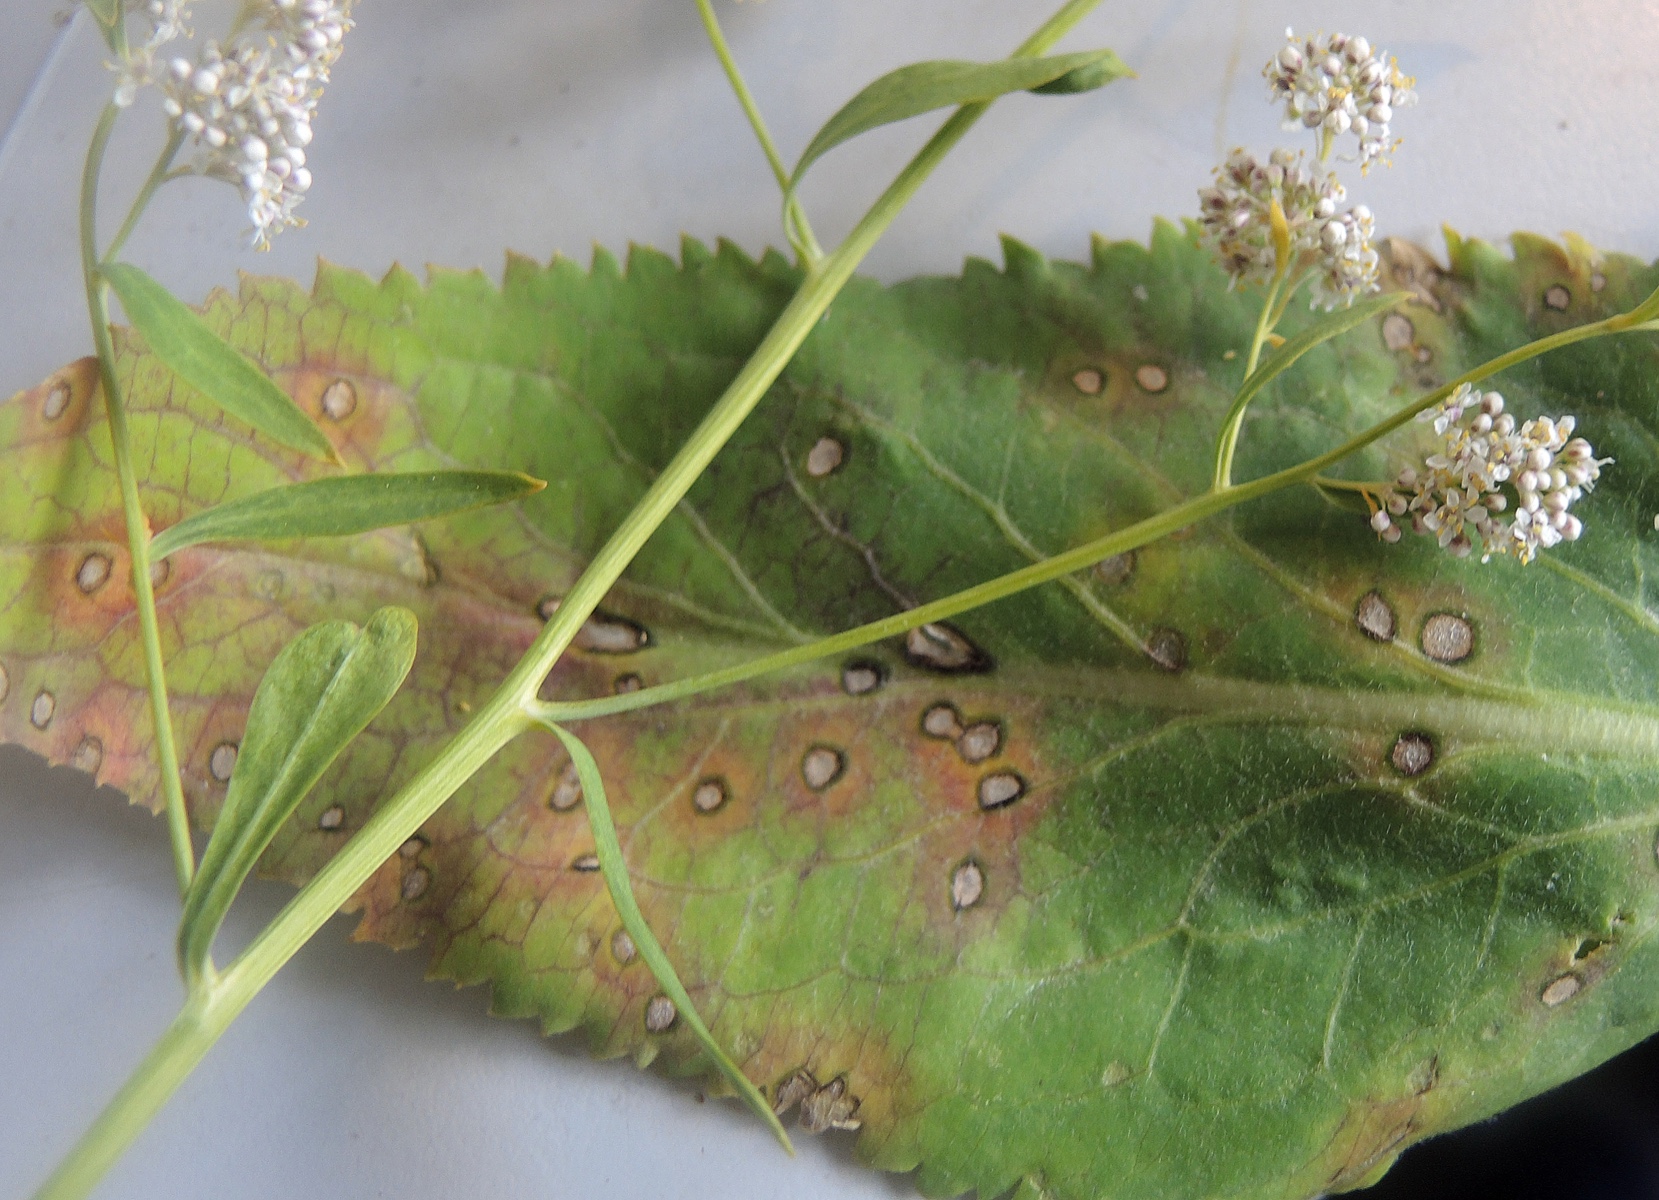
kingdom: Fungi
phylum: Ascomycota
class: Dothideomycetes
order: Mycosphaerellales
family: Mycosphaerellaceae
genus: Cercospora
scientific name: Cercospora bizzozeriana
